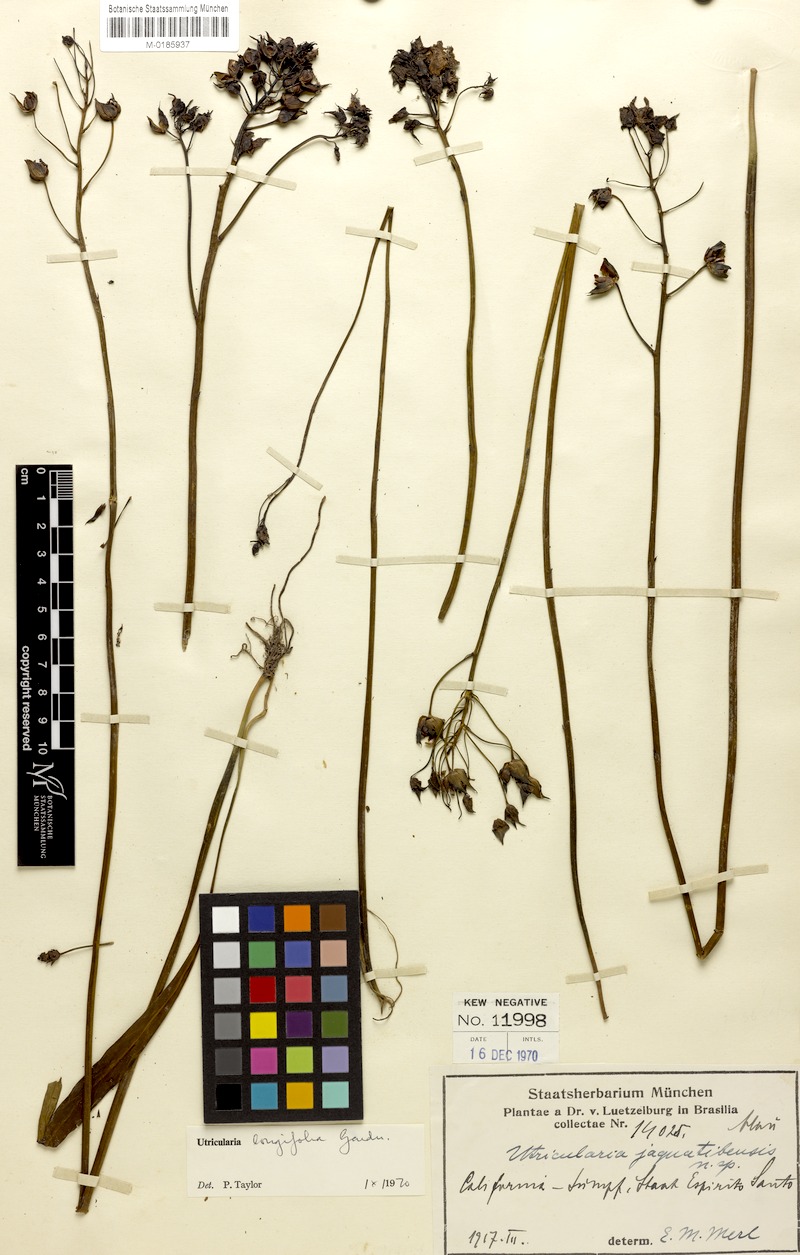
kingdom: Plantae
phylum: Tracheophyta
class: Magnoliopsida
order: Lamiales
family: Lentibulariaceae
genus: Utricularia
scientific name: Utricularia longifolia
